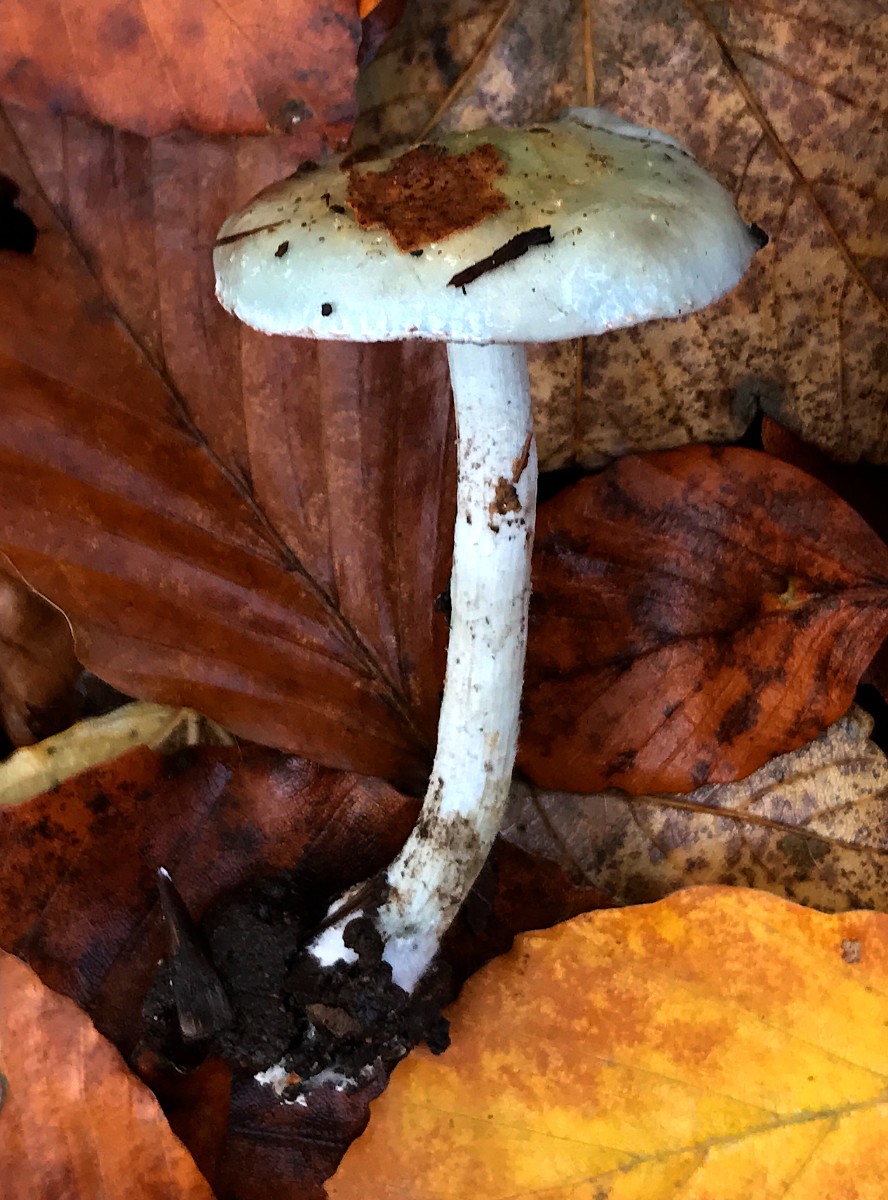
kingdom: Fungi
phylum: Basidiomycota
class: Agaricomycetes
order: Agaricales
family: Strophariaceae
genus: Stropharia
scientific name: Stropharia cyanea
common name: blågrøn bredblad
